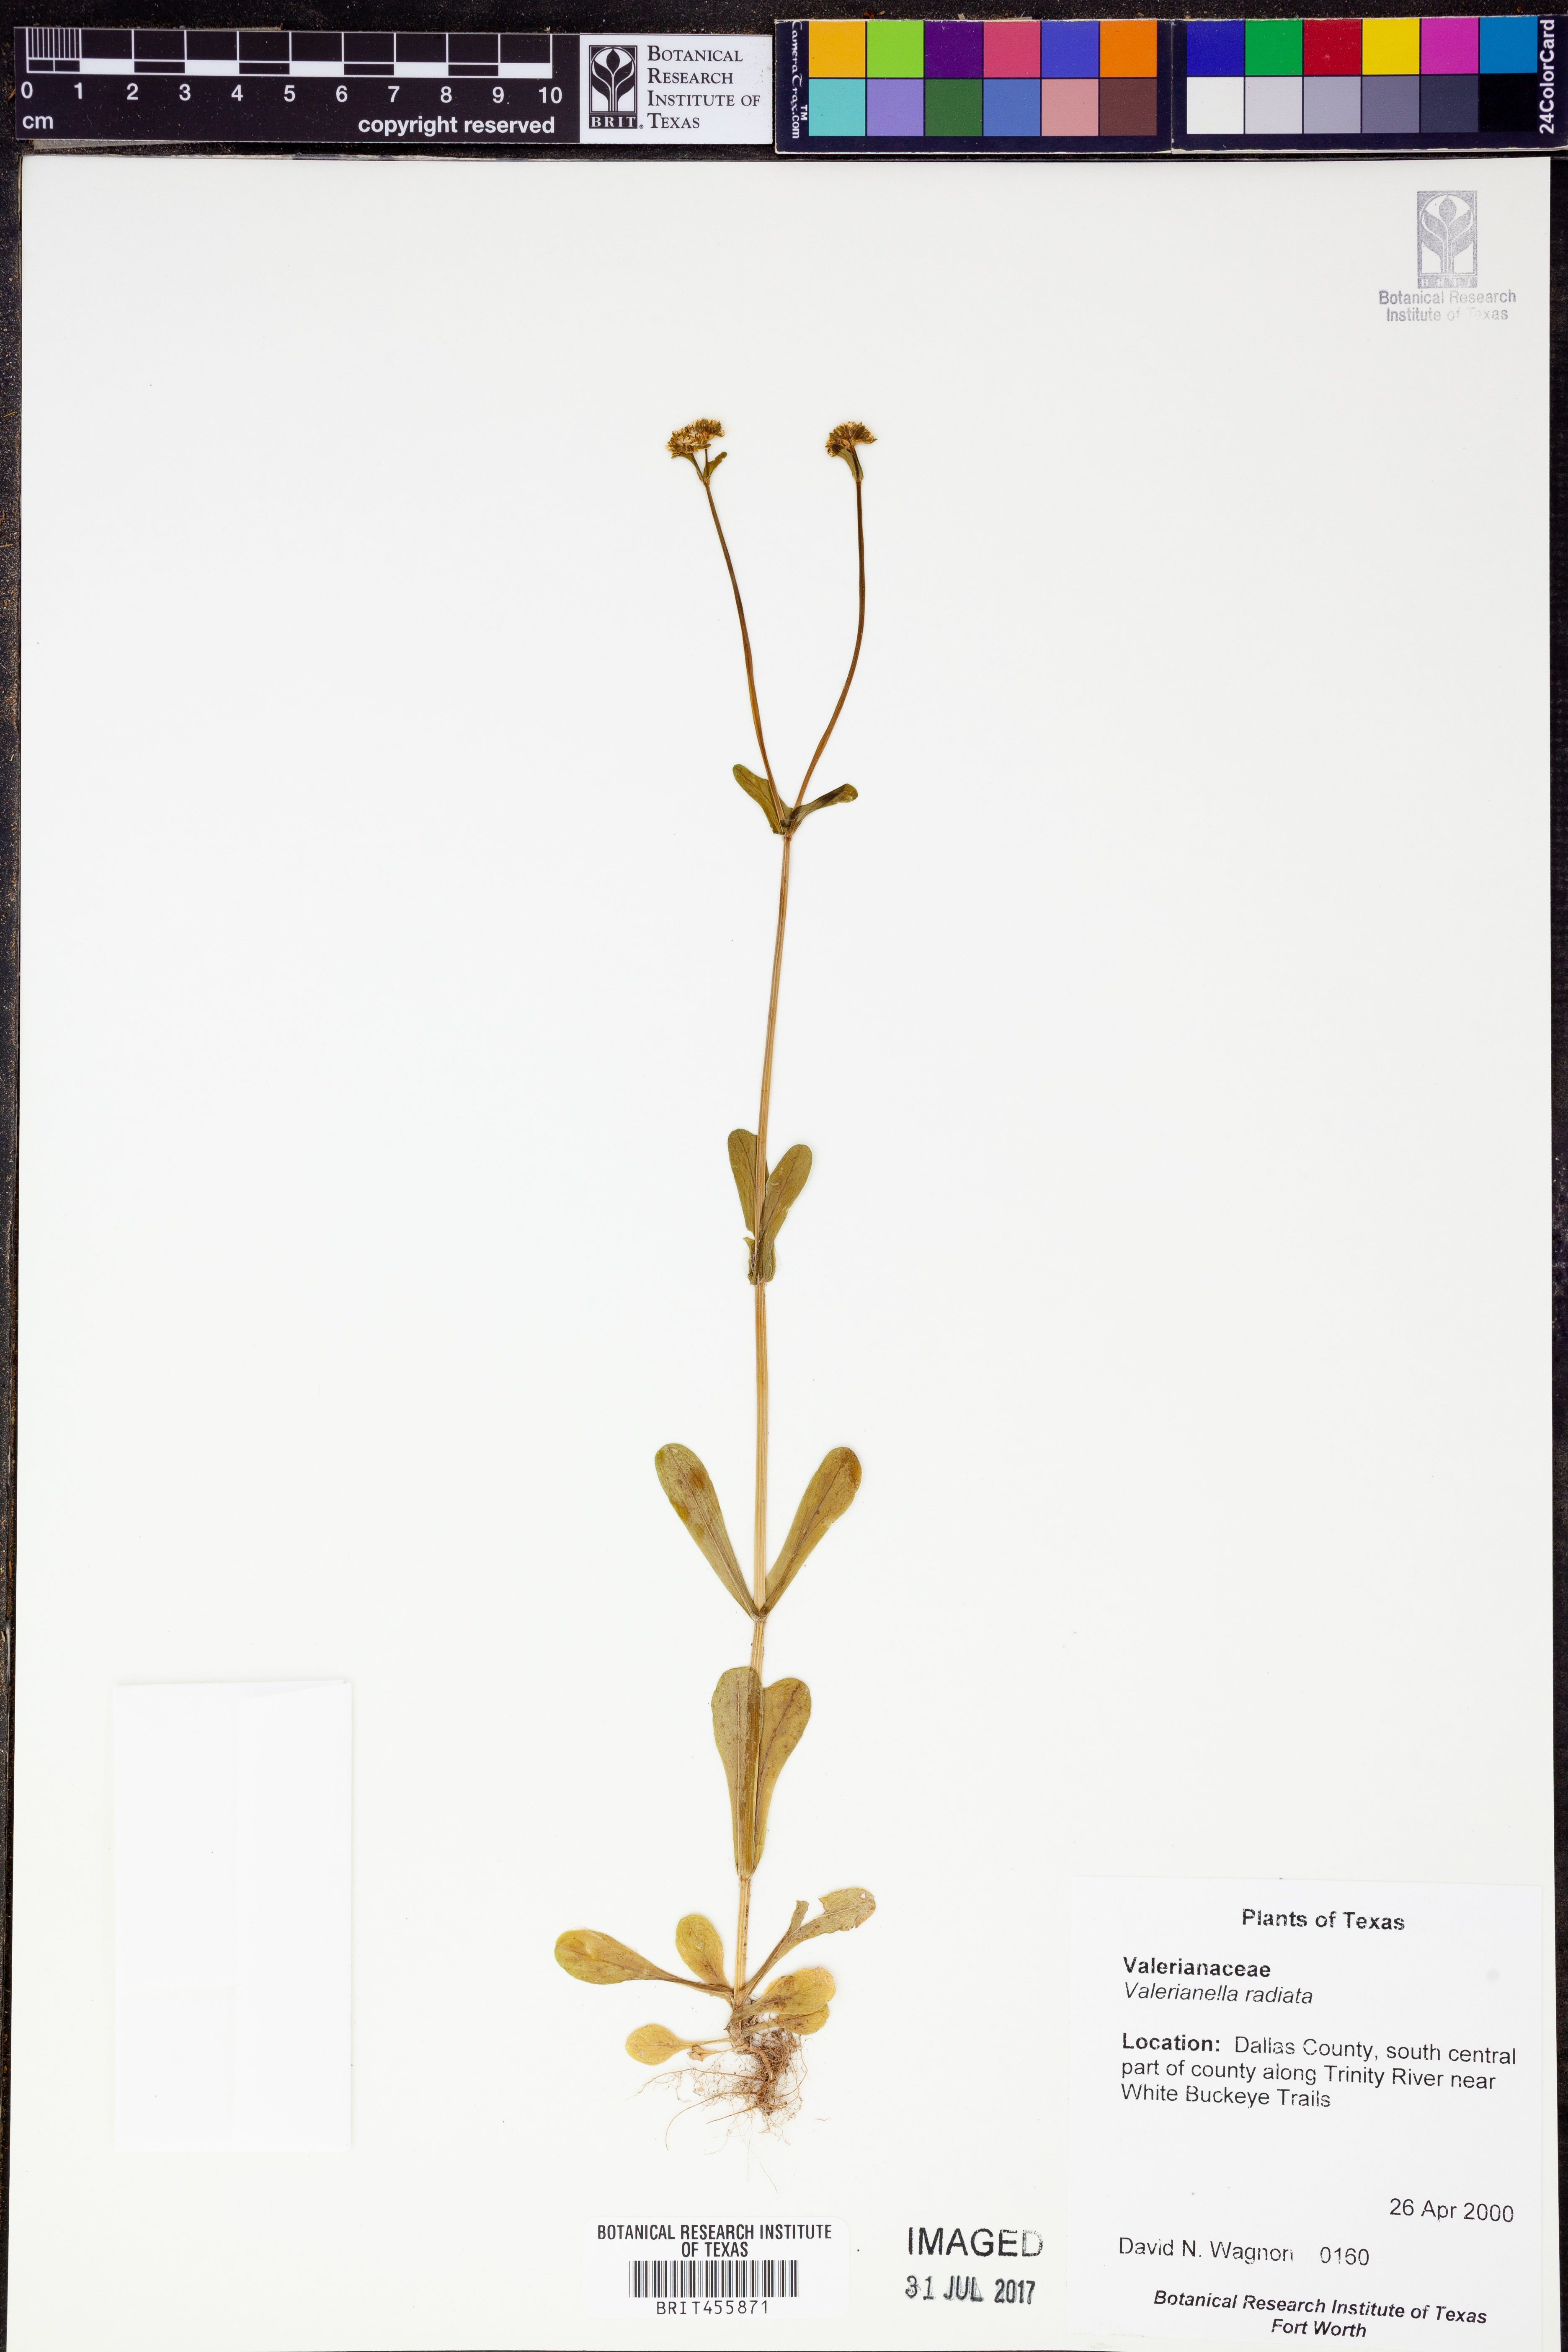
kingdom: Plantae
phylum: Tracheophyta
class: Magnoliopsida
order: Dipsacales
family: Caprifoliaceae
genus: Valerianella
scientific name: Valerianella radiata
